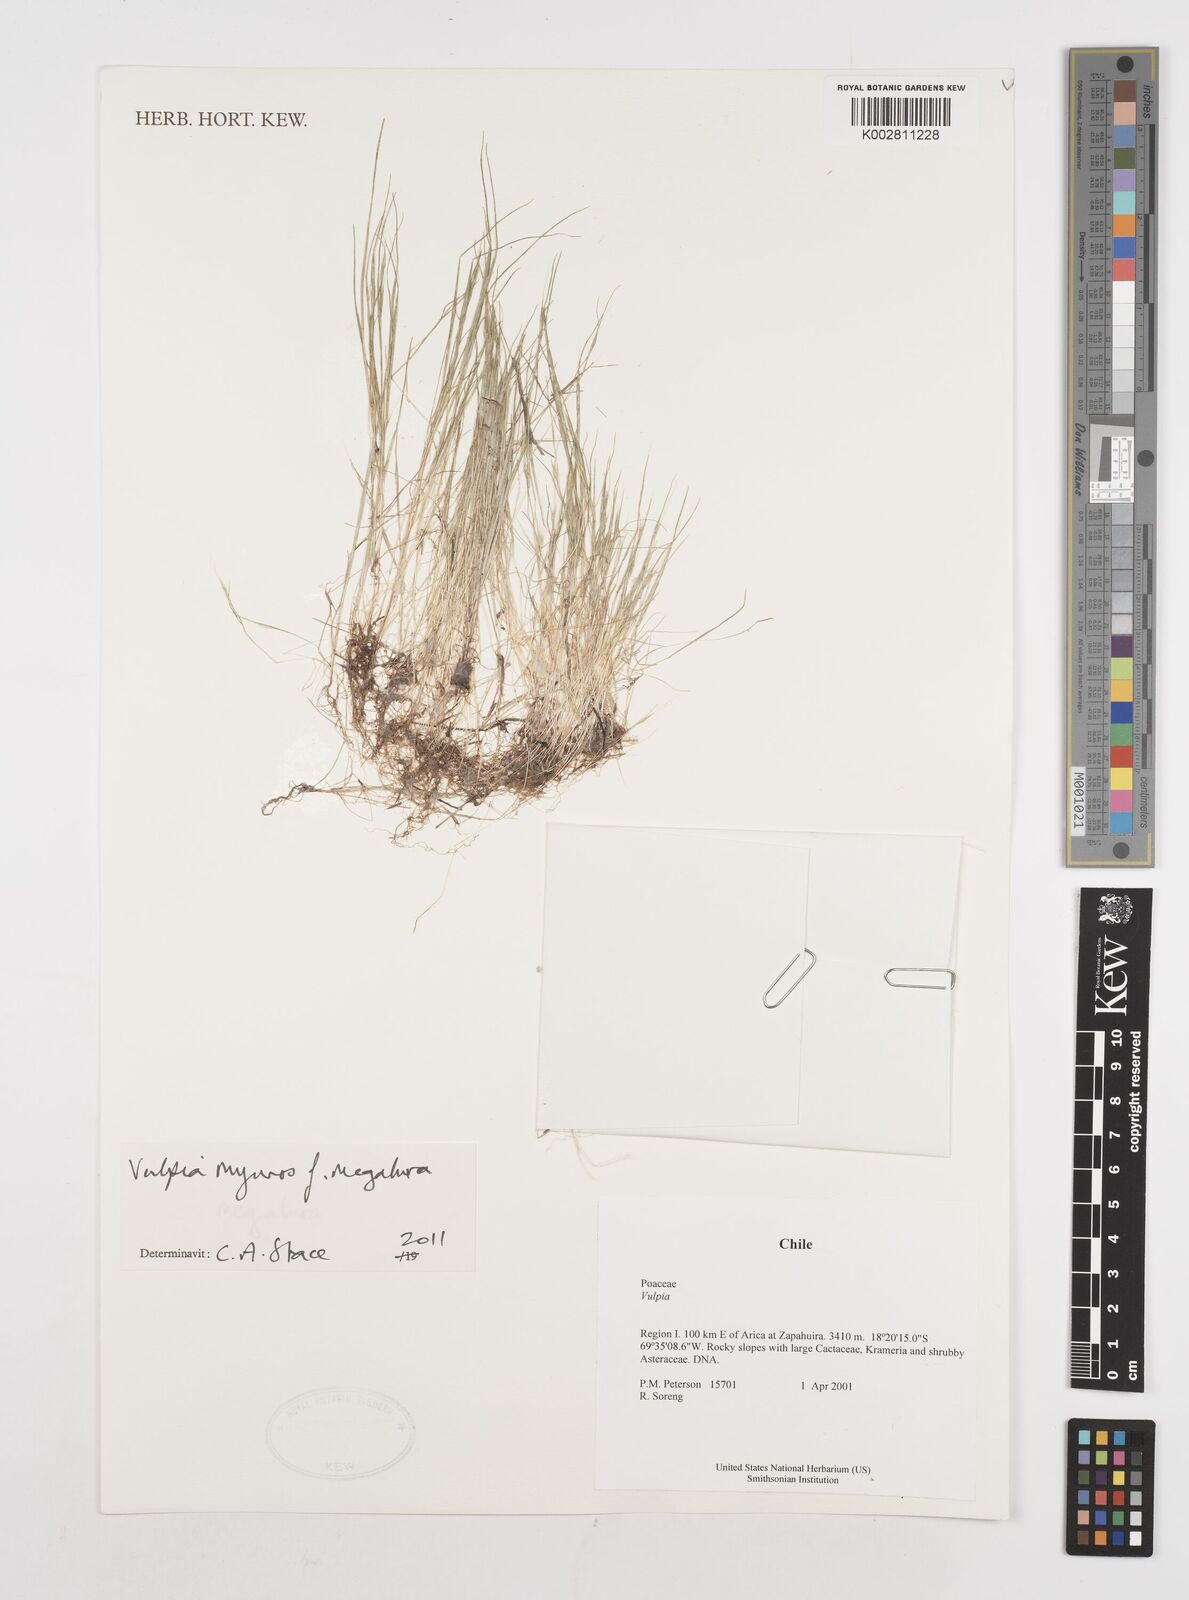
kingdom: Plantae
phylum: Tracheophyta
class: Liliopsida
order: Poales
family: Poaceae
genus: Festuca
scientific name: Festuca myuros
